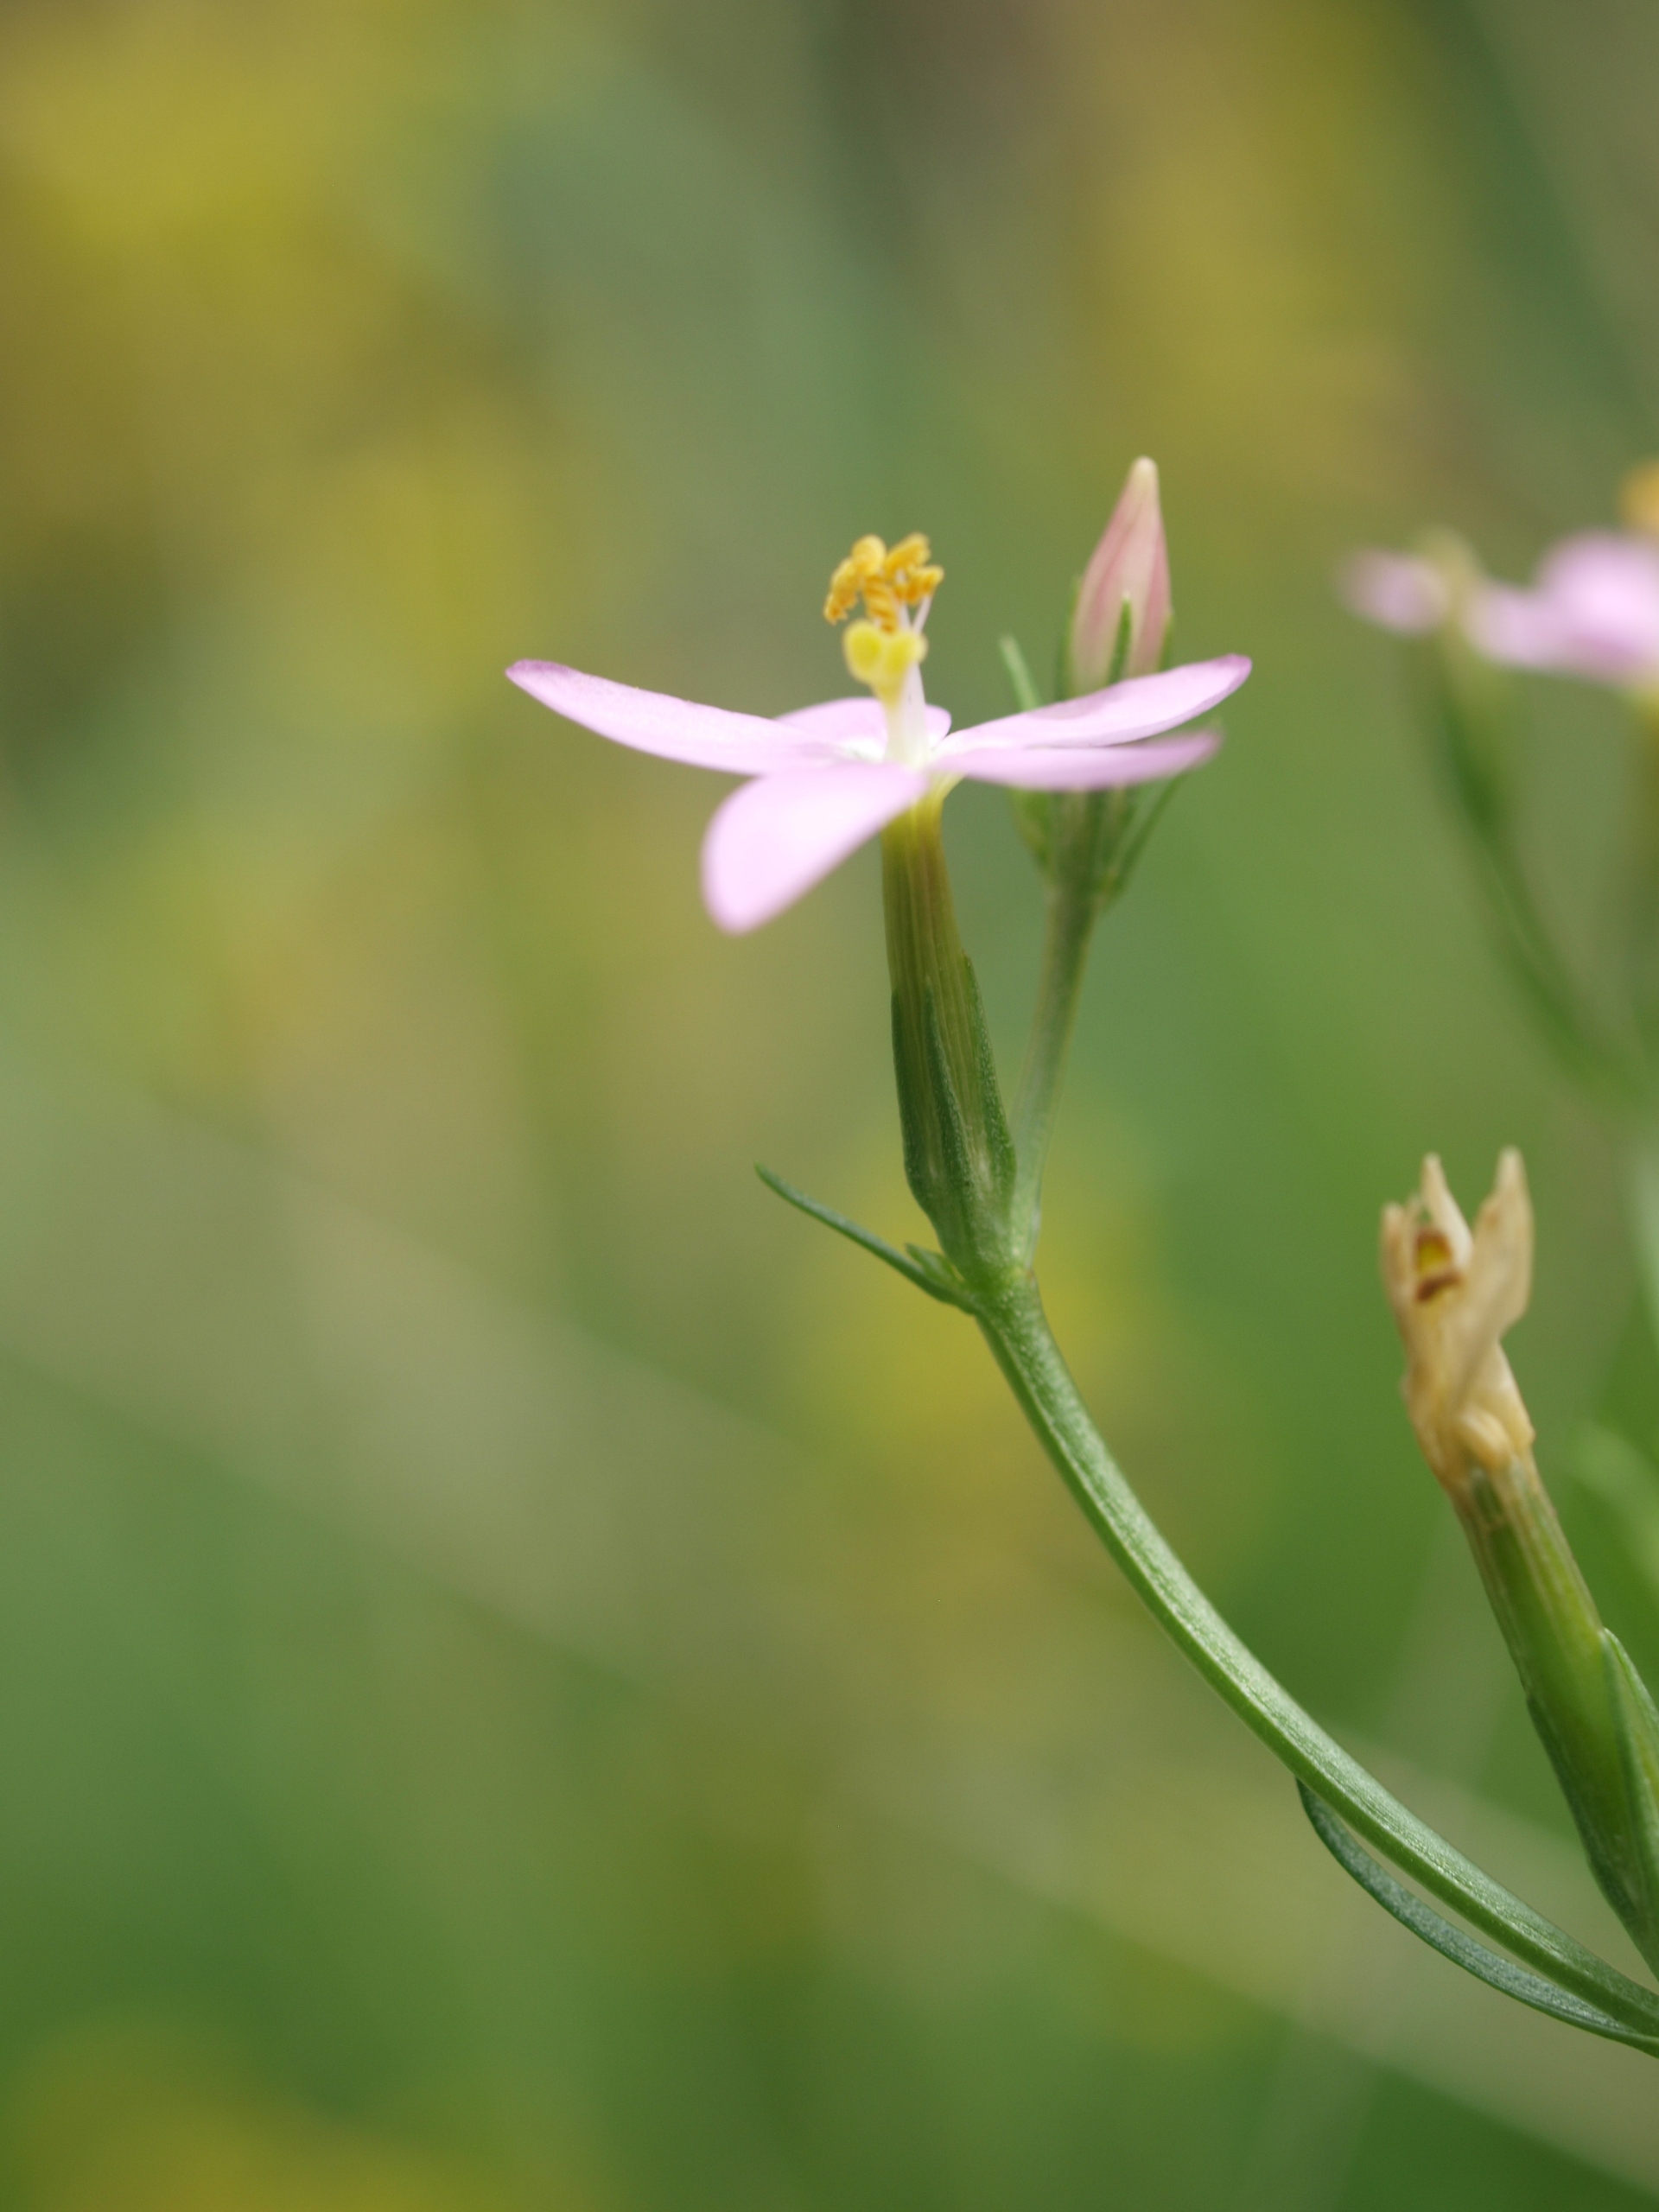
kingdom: Plantae
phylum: Tracheophyta
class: Magnoliopsida
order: Gentianales
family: Gentianaceae
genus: Centaurium
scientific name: Centaurium erythraea
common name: Mark-tusindgylden
